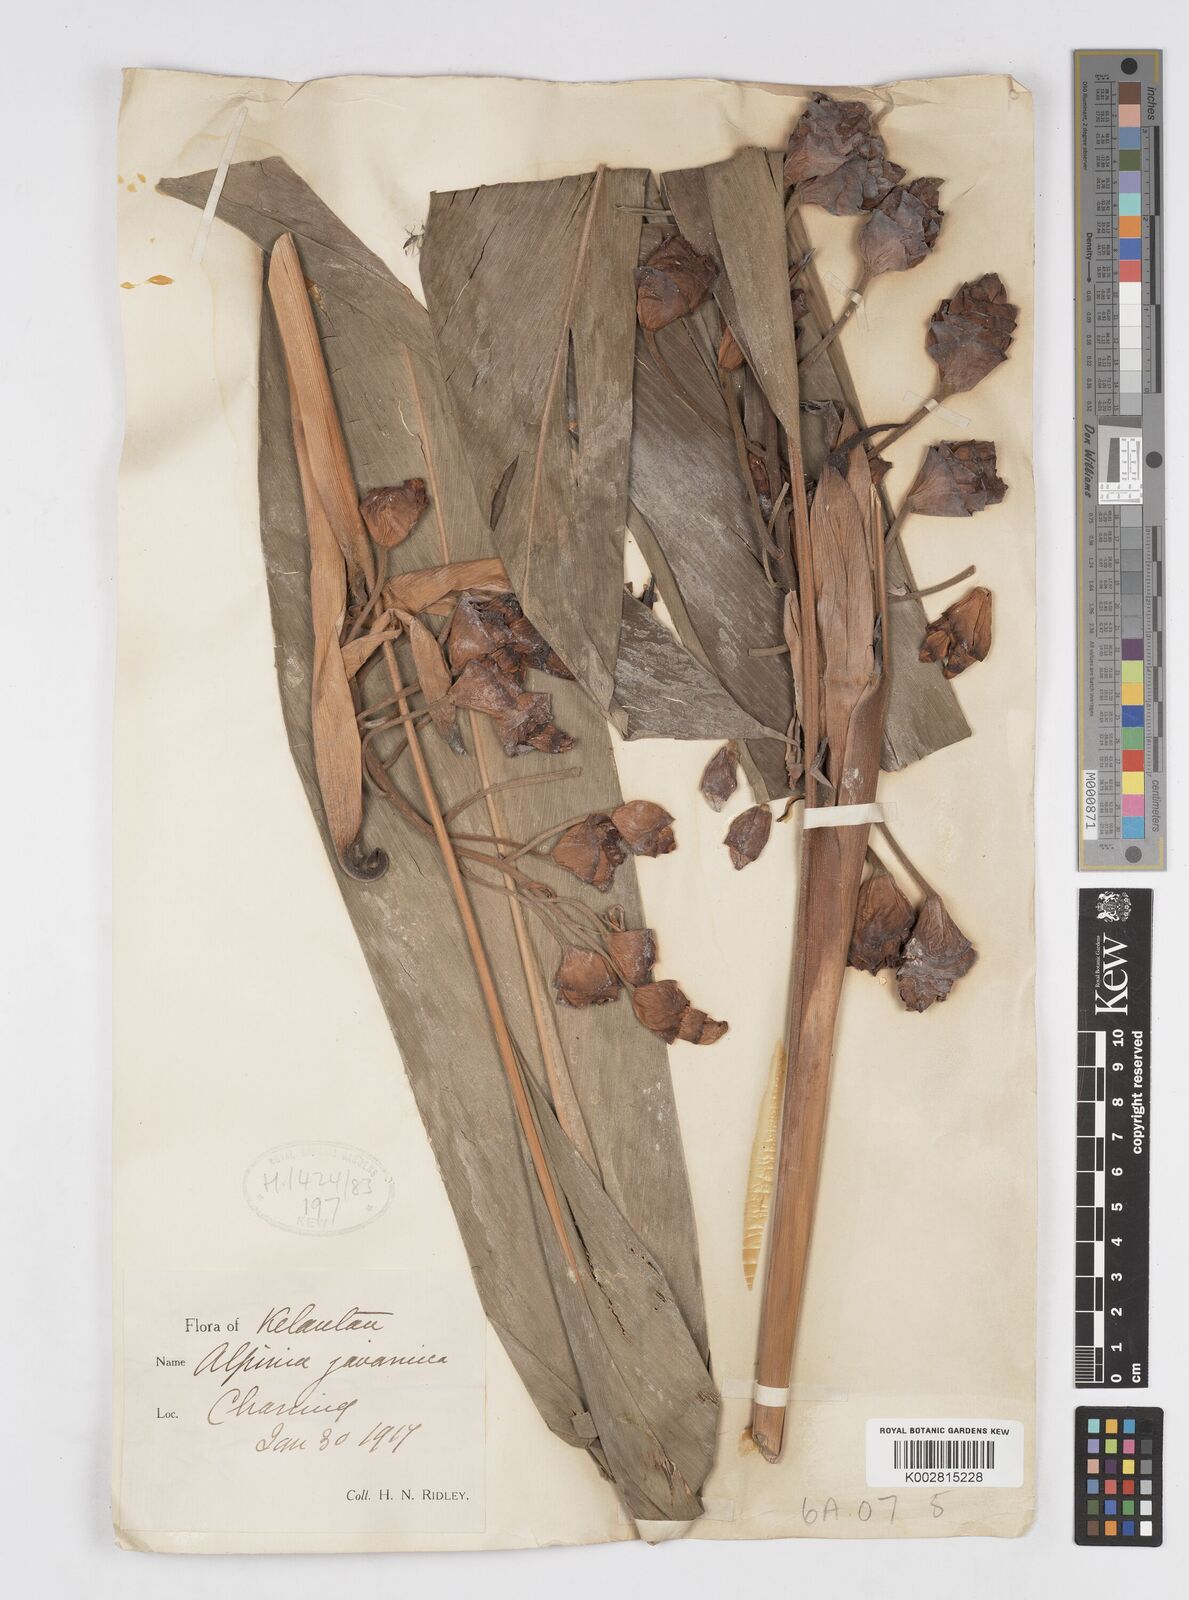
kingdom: Plantae
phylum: Tracheophyta
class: Liliopsida
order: Zingiberales
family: Zingiberaceae
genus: Alpinia
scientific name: Alpinia javanica
